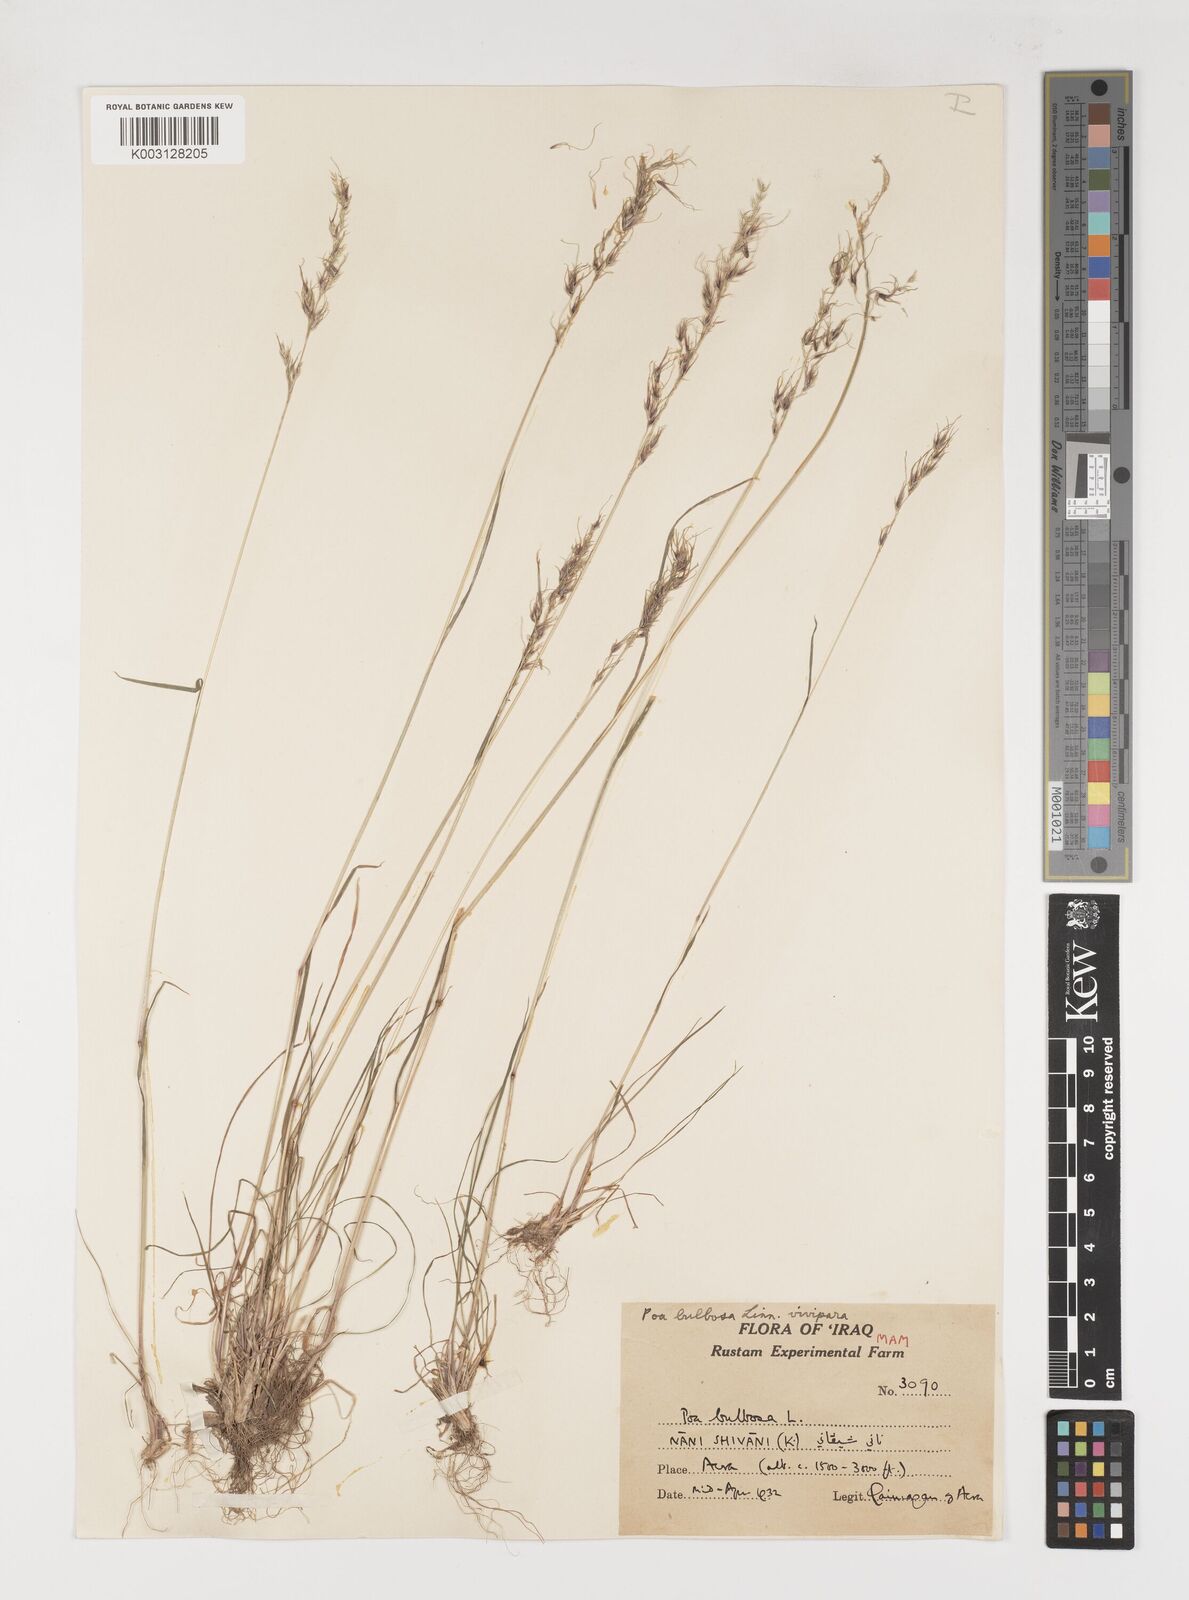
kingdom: Plantae
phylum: Tracheophyta
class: Liliopsida
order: Poales
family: Poaceae
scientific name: Poaceae
